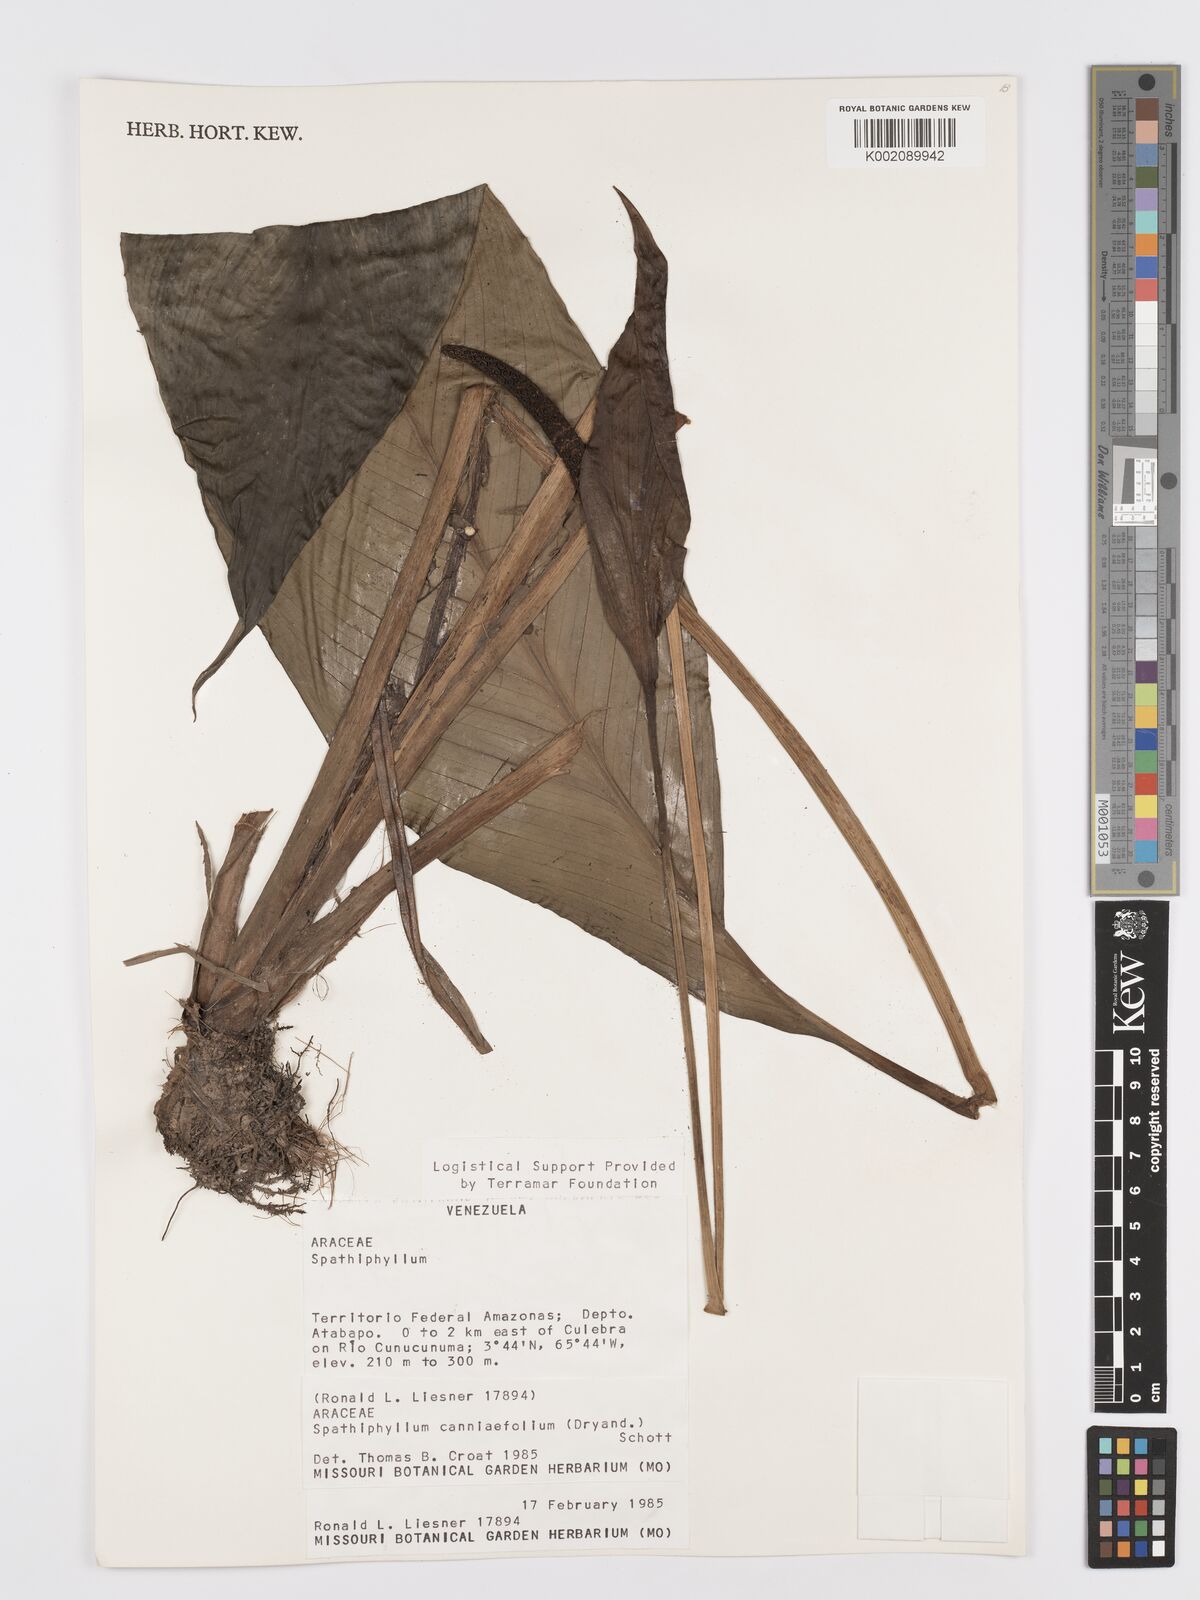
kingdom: Plantae
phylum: Tracheophyta
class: Liliopsida
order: Alismatales
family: Araceae
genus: Spathiphyllum
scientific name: Spathiphyllum cannifolium
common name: Spatheflower
